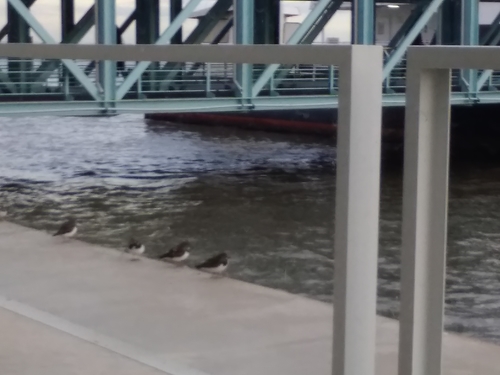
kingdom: Animalia
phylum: Chordata
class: Aves
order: Charadriiformes
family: Scolopacidae
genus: Arenaria
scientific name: Arenaria interpres
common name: Ruddy turnstone
